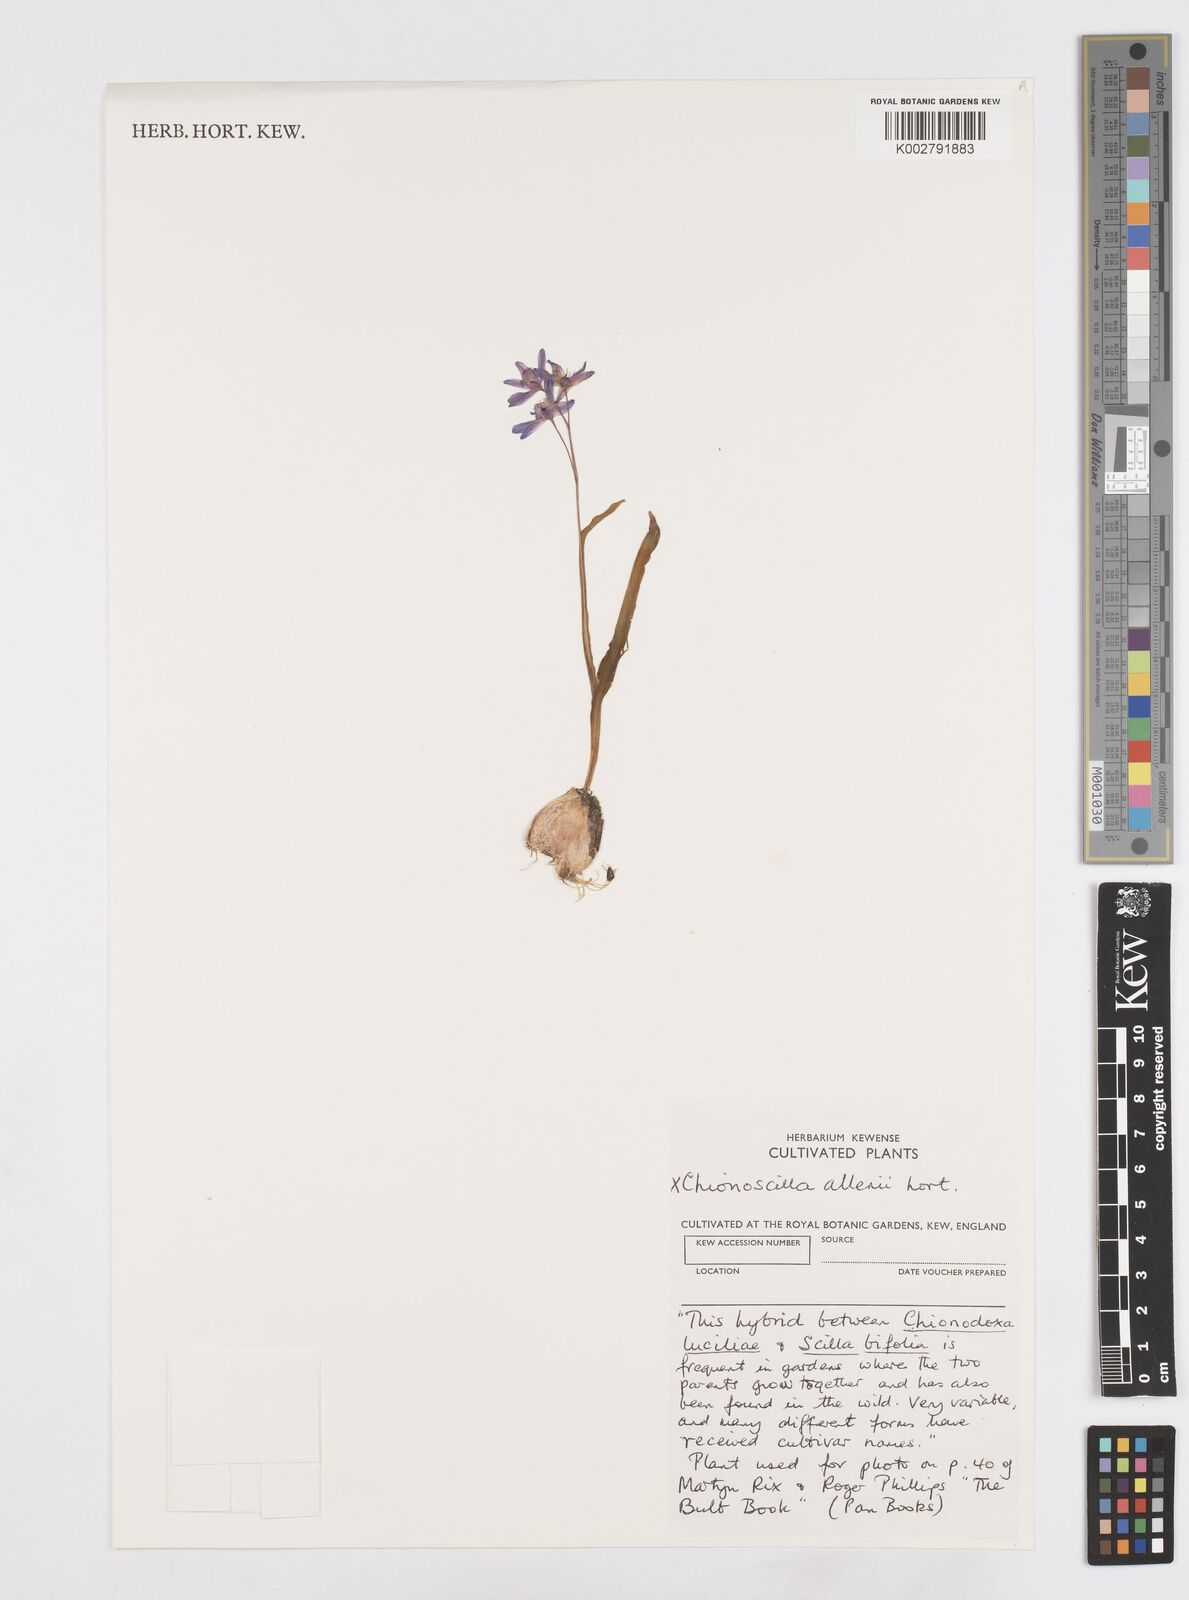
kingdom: Plantae
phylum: Tracheophyta
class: Liliopsida
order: Asparagales
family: Asparagaceae
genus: Scilla
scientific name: Scilla allenii
